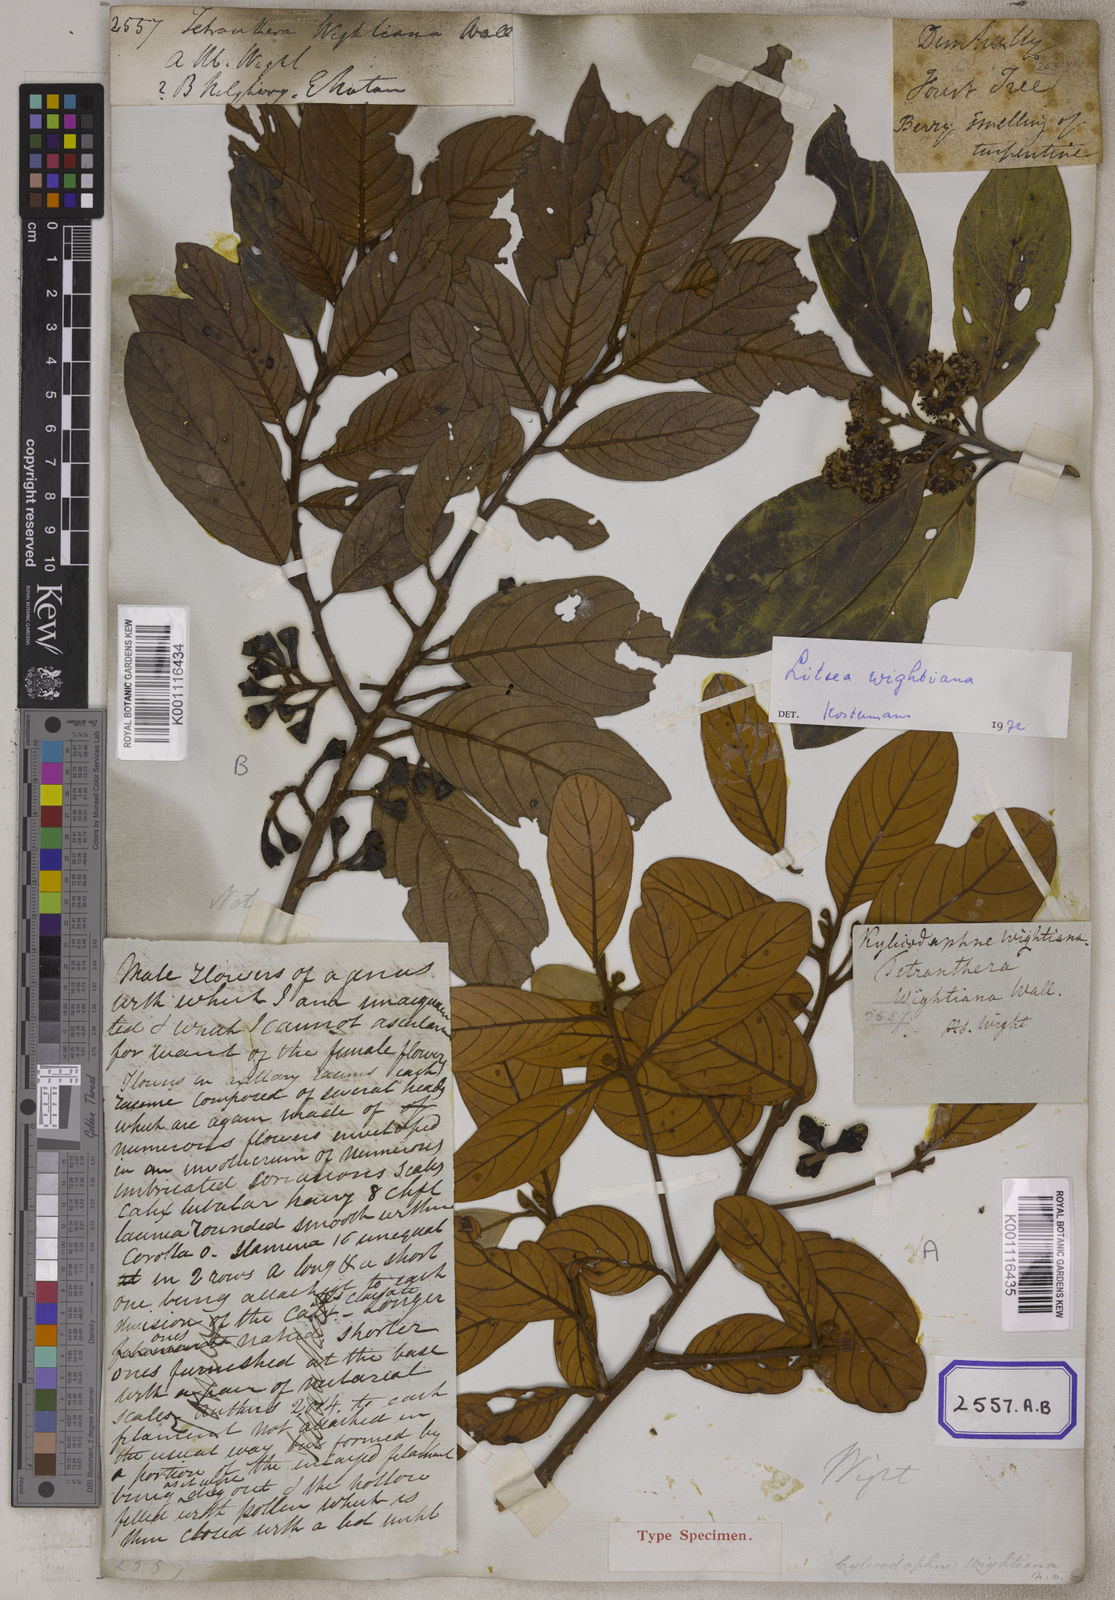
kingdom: Plantae
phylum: Tracheophyta
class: Magnoliopsida
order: Laurales
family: Lauraceae
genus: Litsea
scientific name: Litsea wightiana
